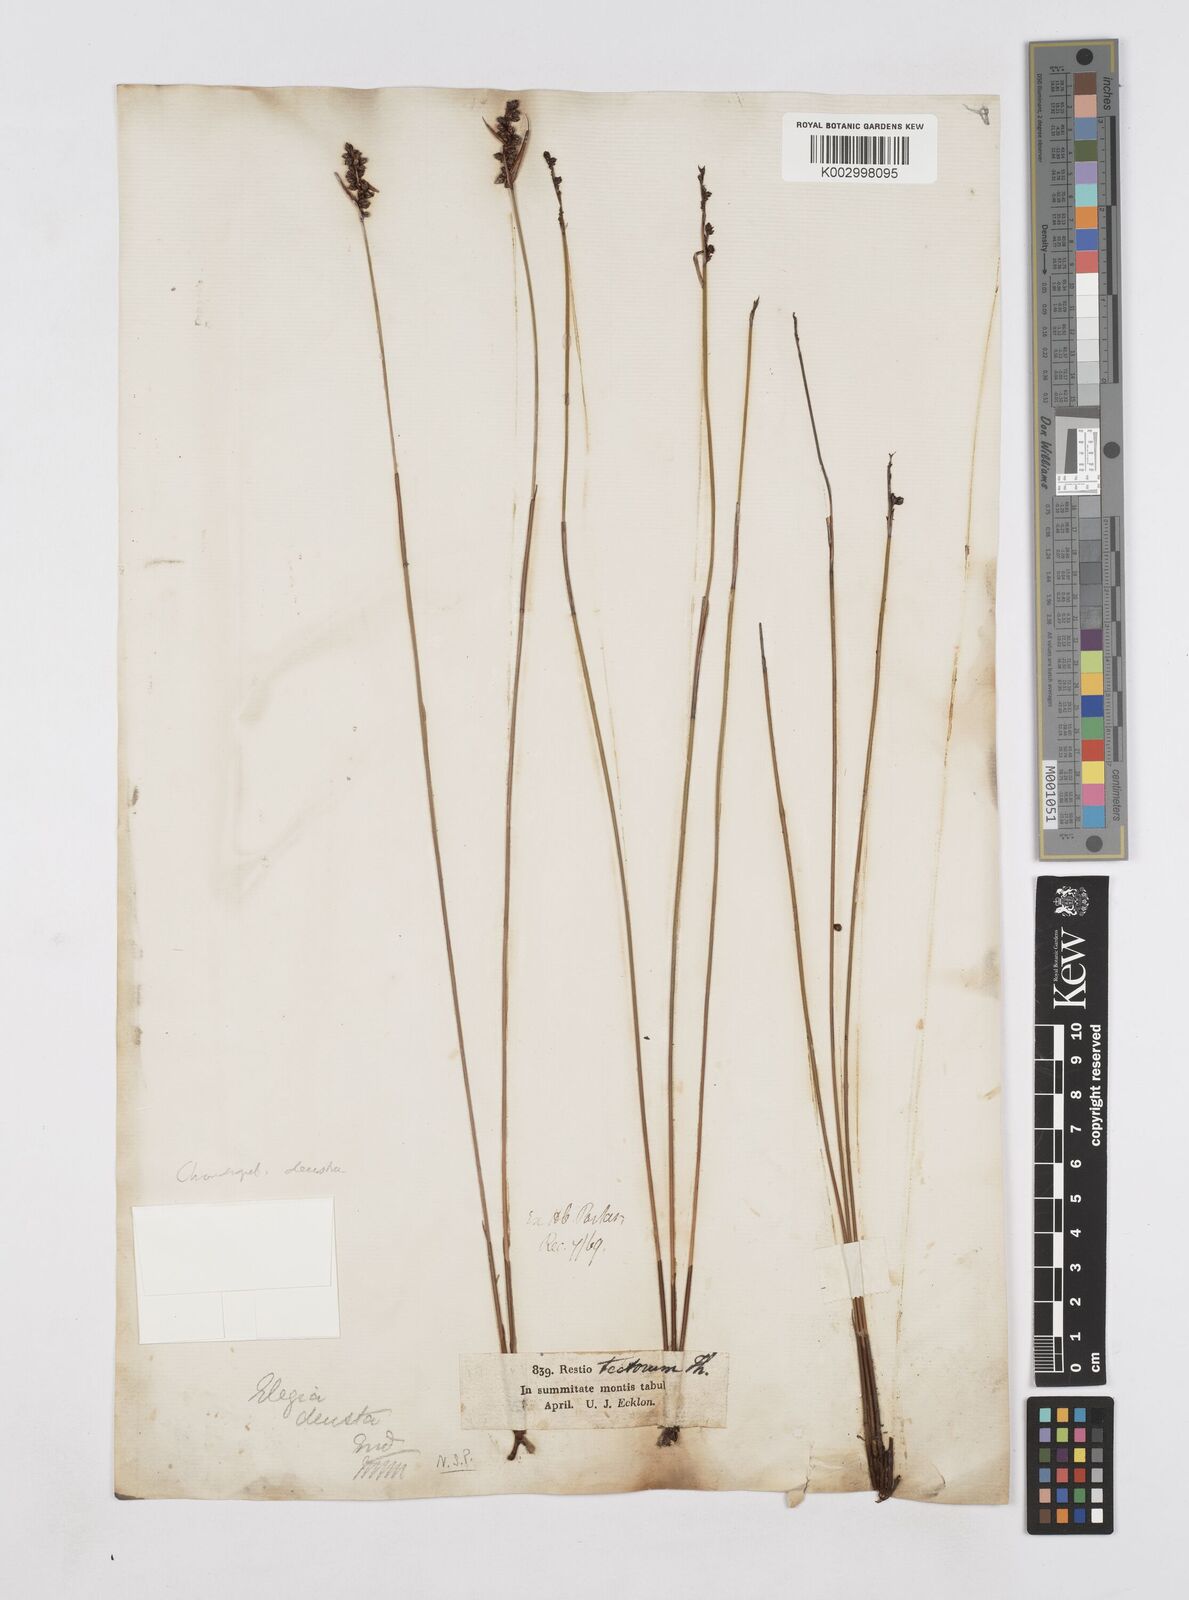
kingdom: Plantae
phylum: Tracheophyta
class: Liliopsida
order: Poales
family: Restionaceae
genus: Elegia
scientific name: Elegia deusta
